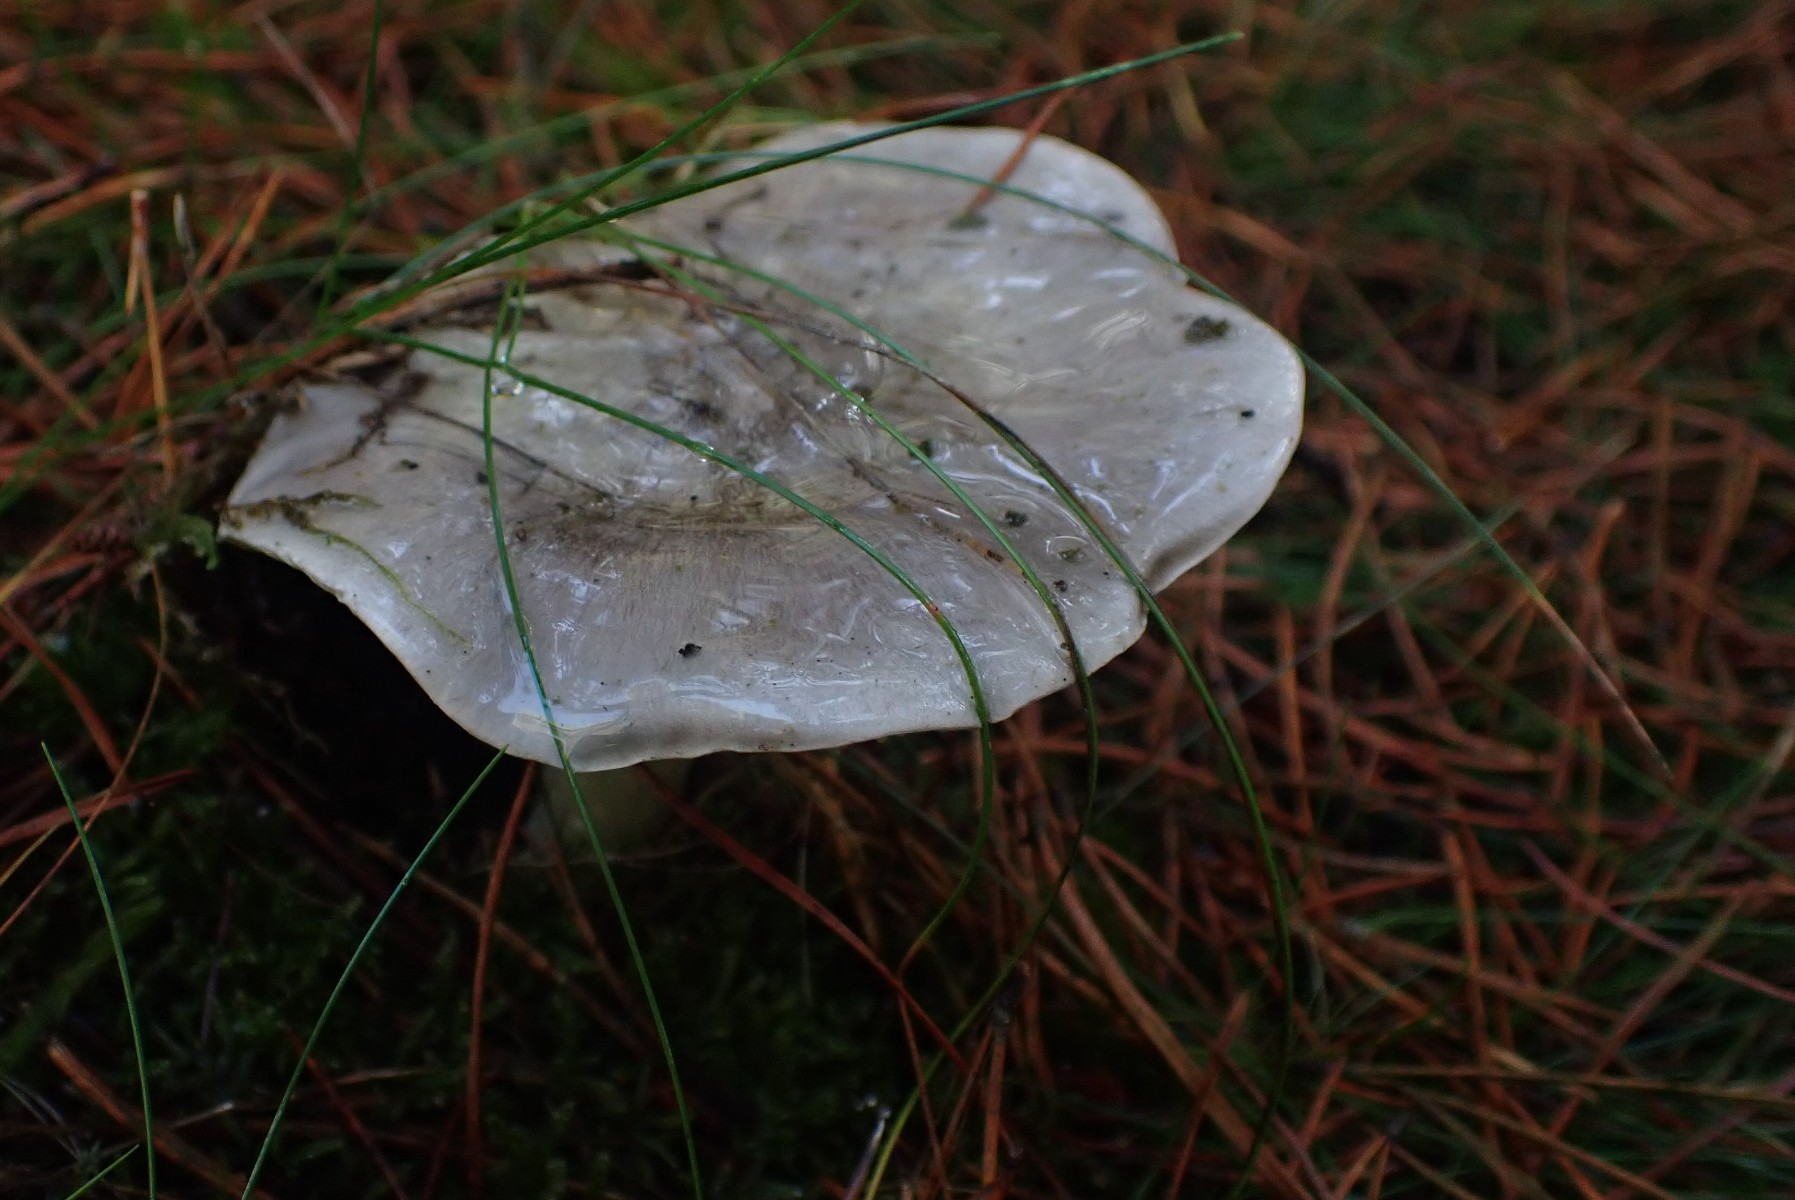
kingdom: Fungi
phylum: Basidiomycota
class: Agaricomycetes
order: Agaricales
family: Tricholomataceae
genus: Tricholoma
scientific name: Tricholoma portentosum
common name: grå ridderhat
